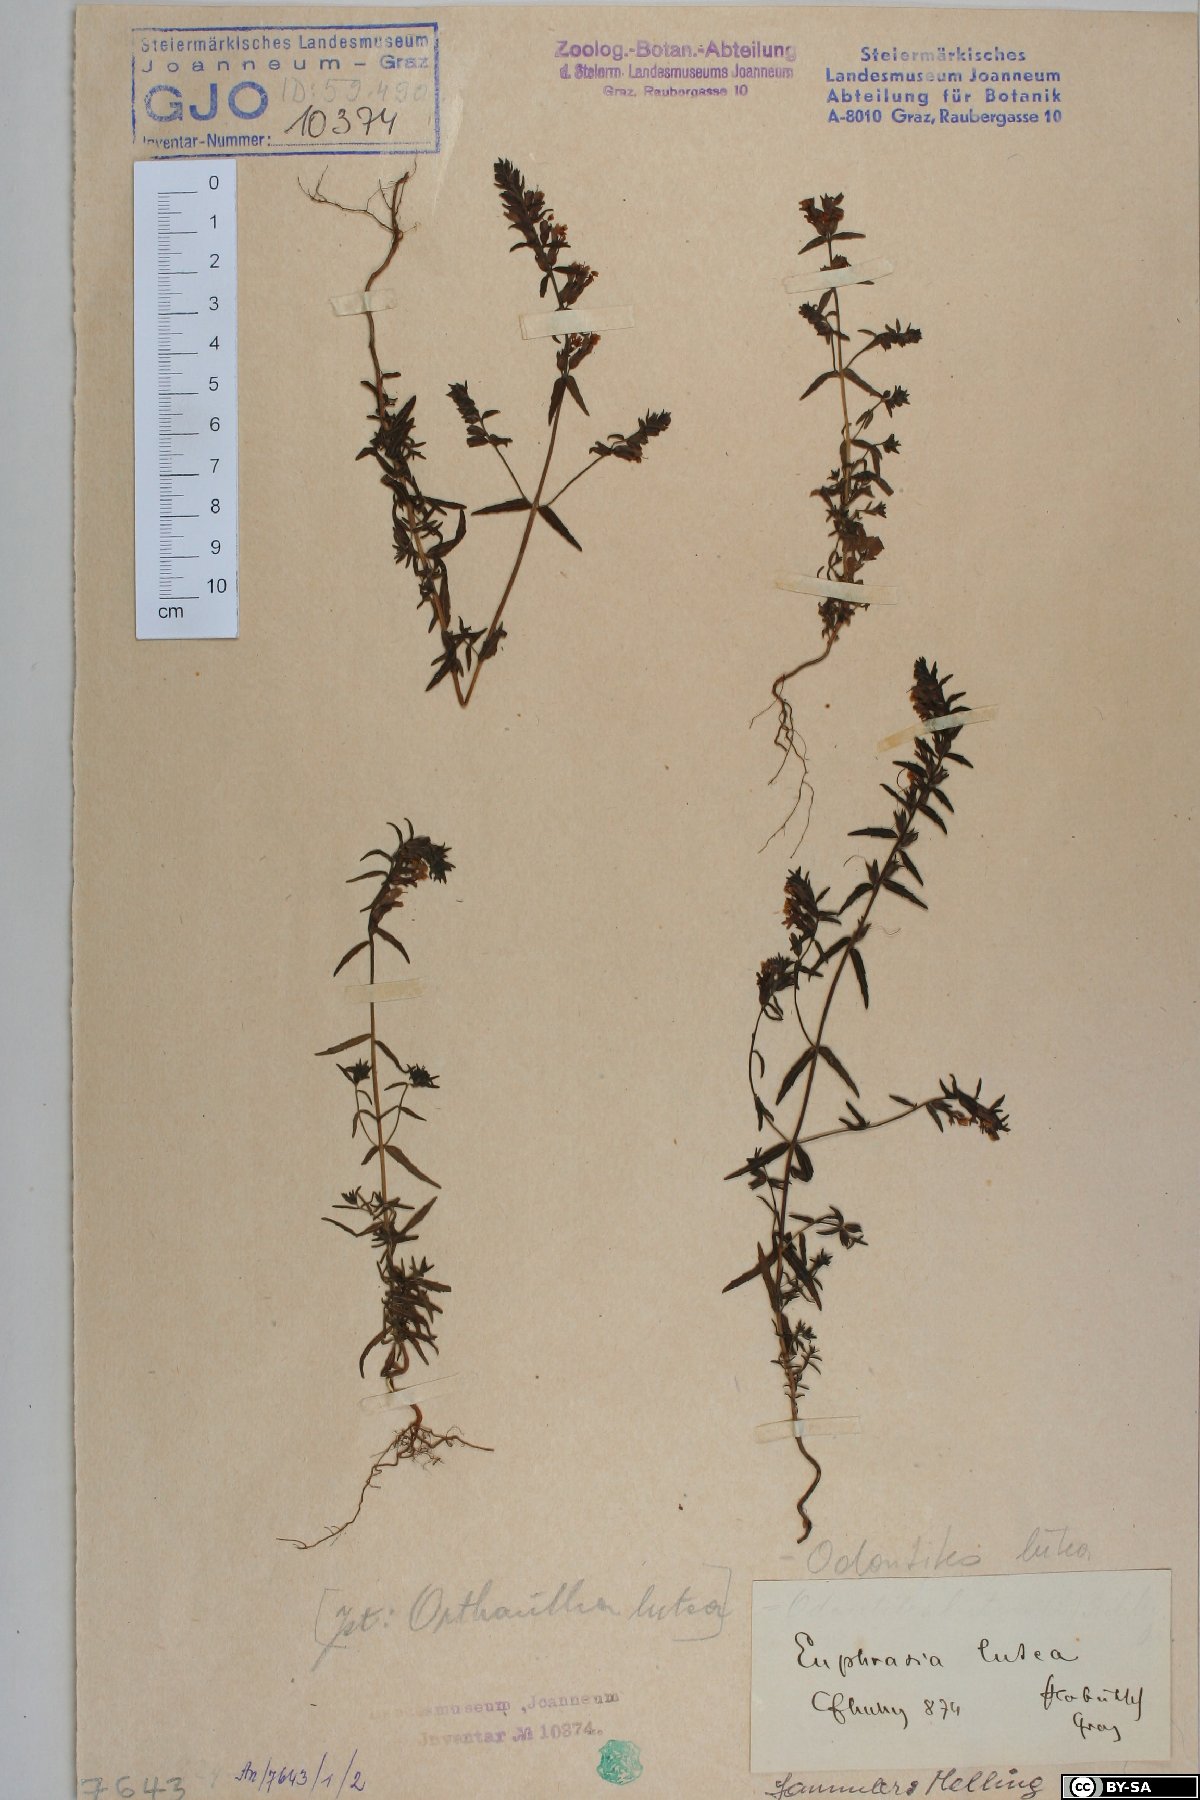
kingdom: Plantae
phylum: Tracheophyta
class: Magnoliopsida
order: Lamiales
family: Orobanchaceae
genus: Odontites
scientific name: Odontites luteus
